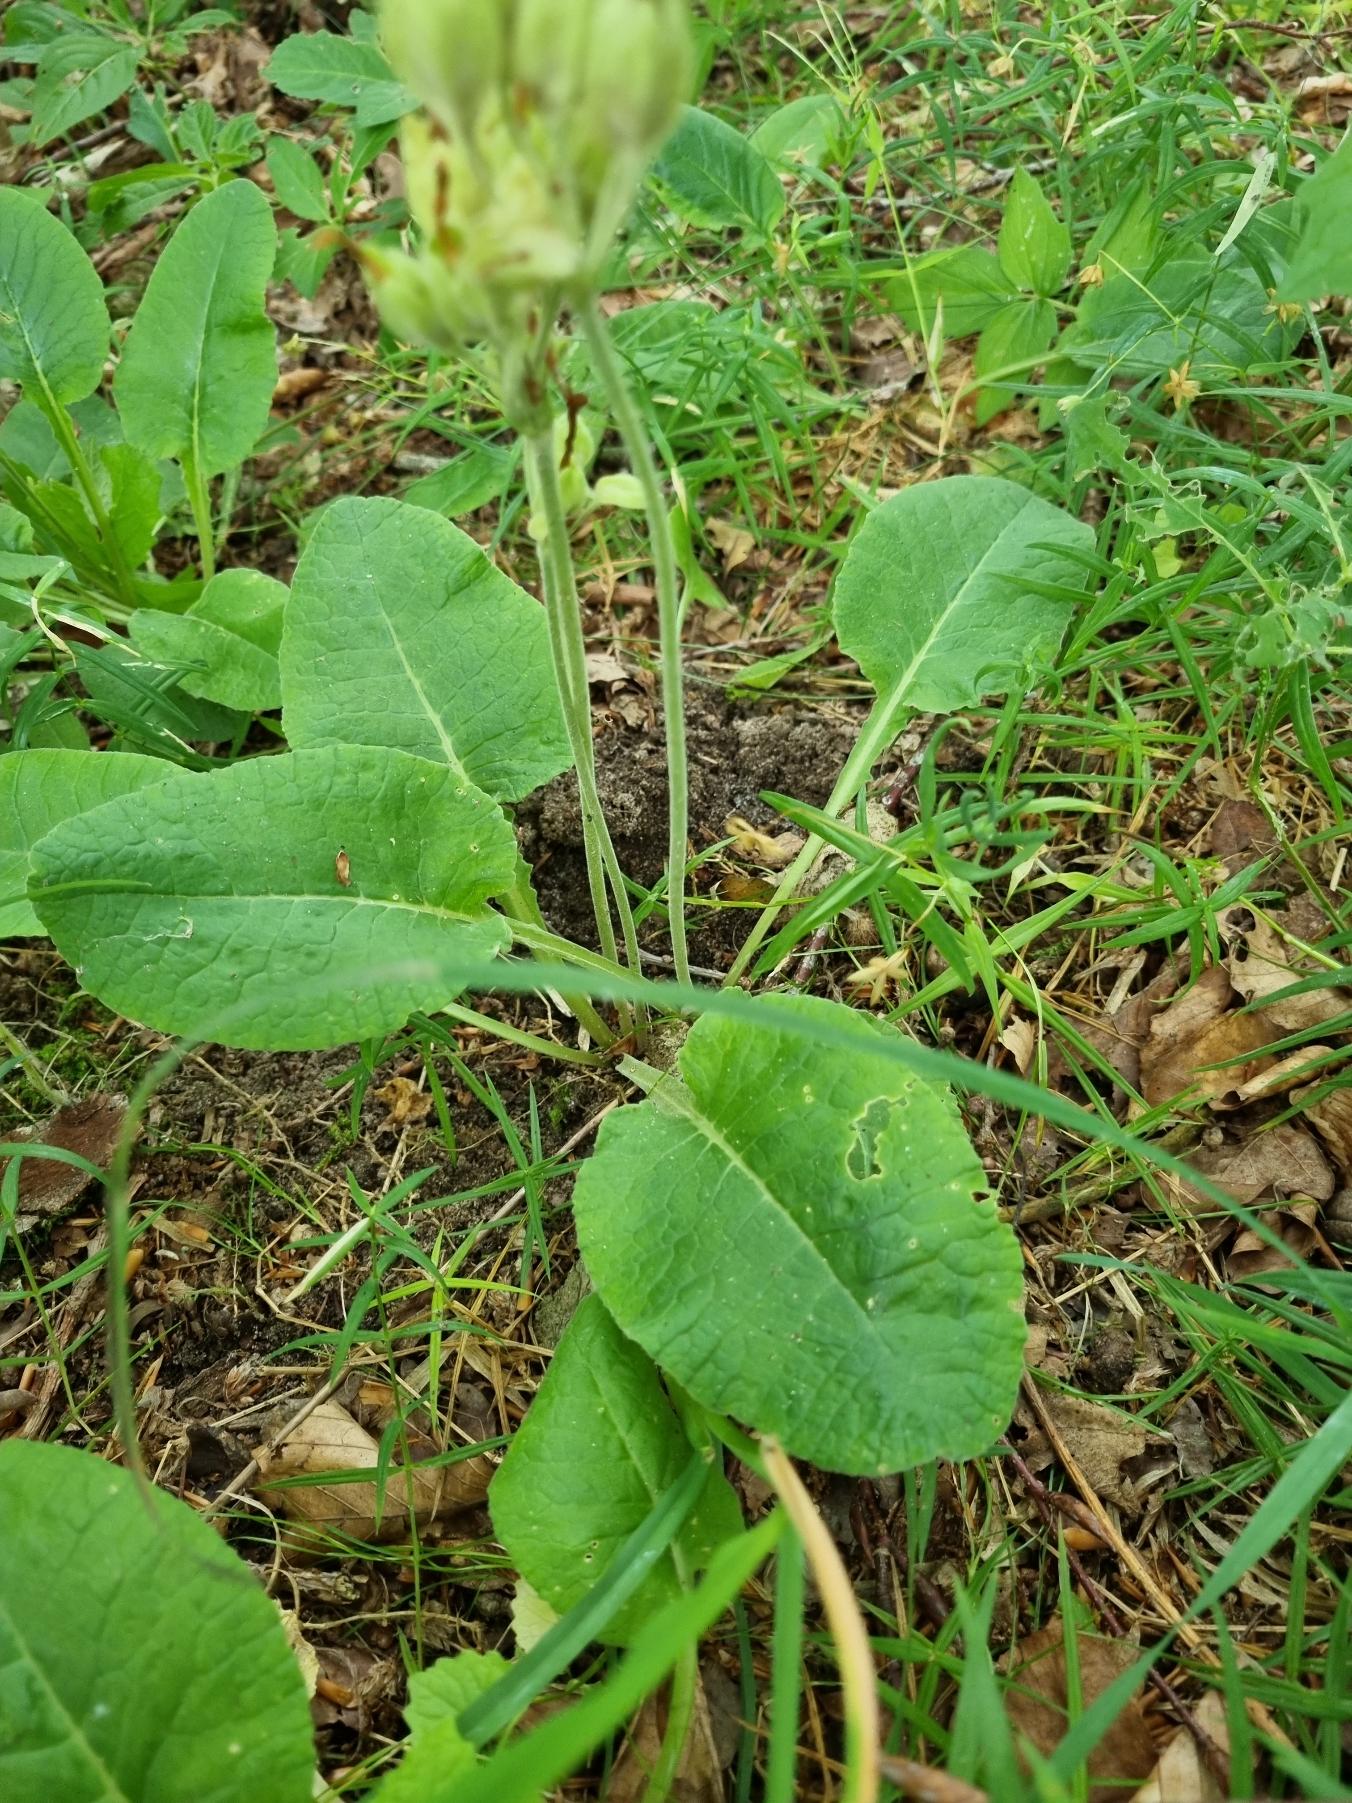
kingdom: Plantae
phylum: Tracheophyta
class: Magnoliopsida
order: Ericales
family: Primulaceae
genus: Primula
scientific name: Primula veris
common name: Hulkravet kodriver
